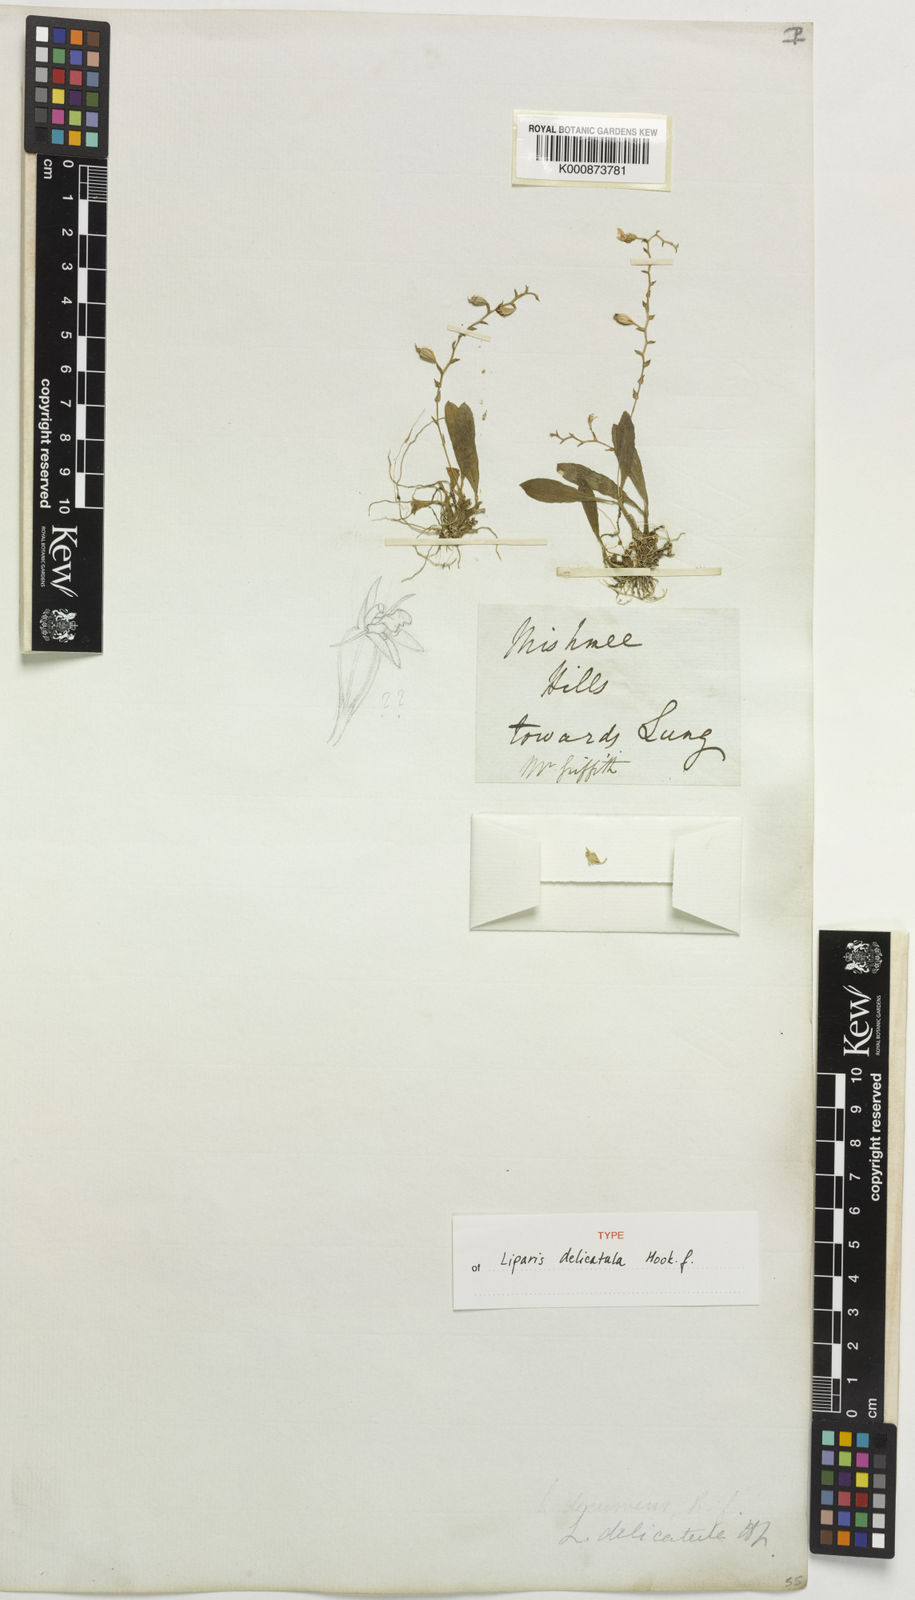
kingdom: Plantae
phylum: Tracheophyta
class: Liliopsida
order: Asparagales
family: Orchidaceae
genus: Liparis
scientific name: Liparis delicatula
